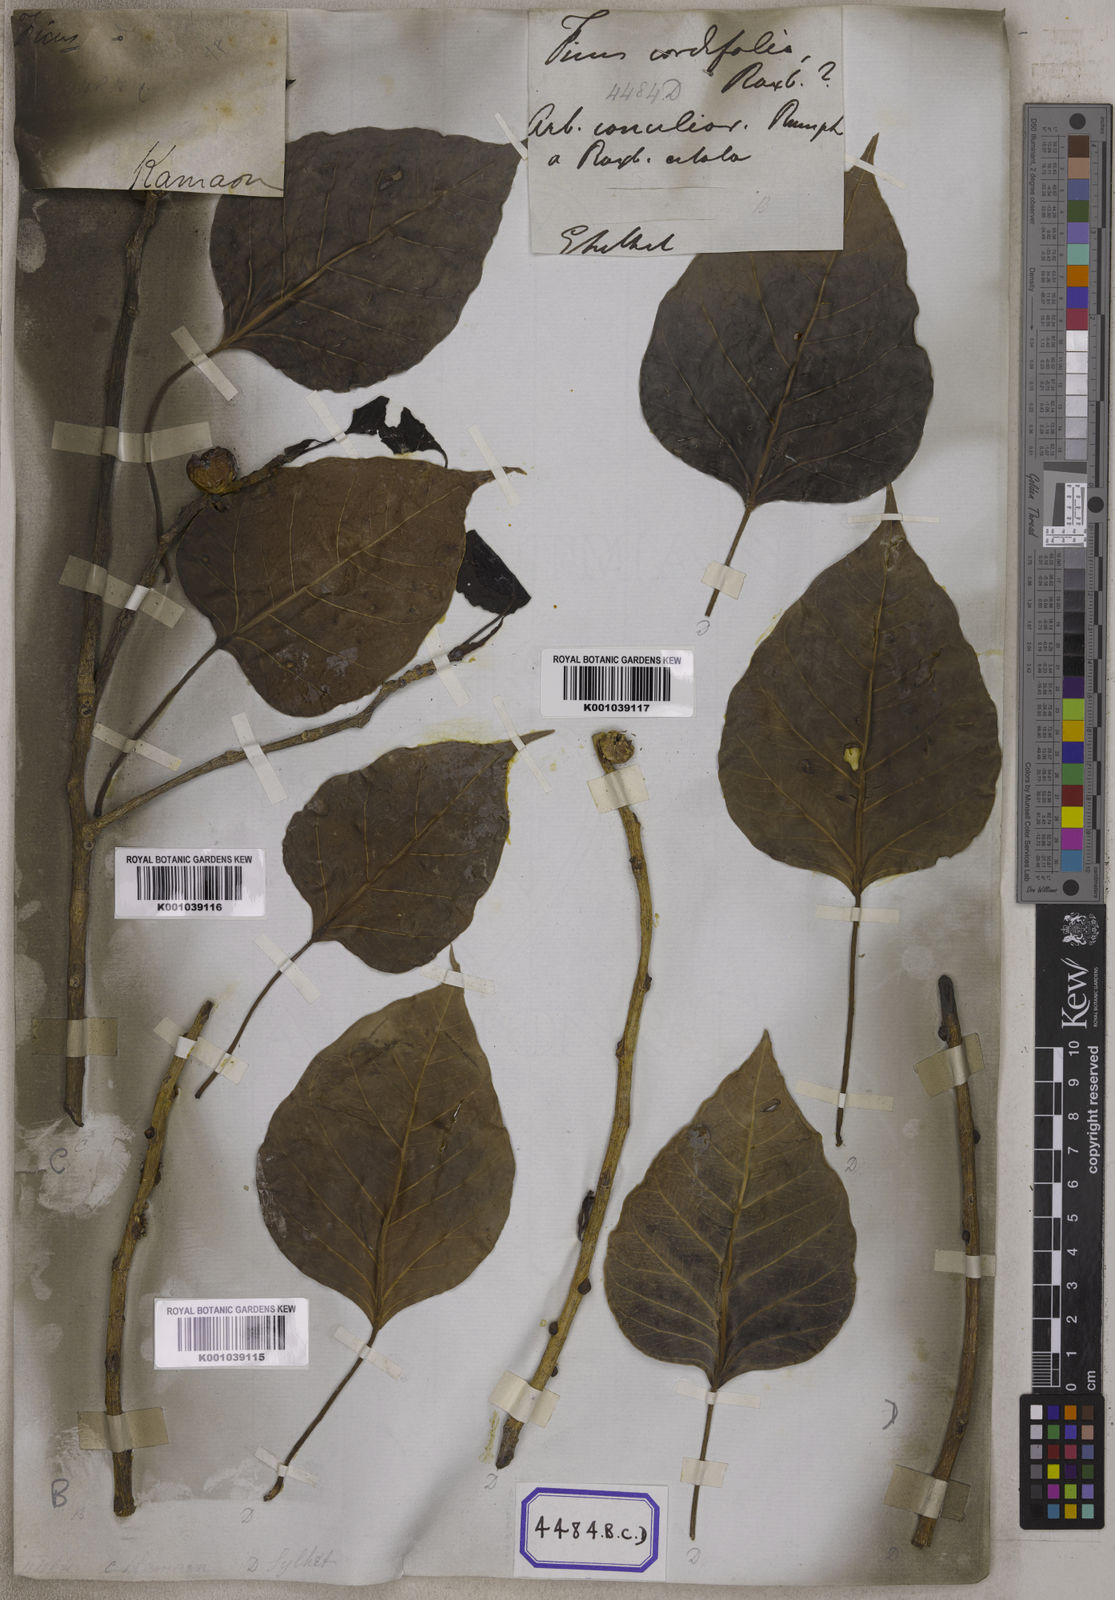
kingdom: Plantae
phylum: Tracheophyta
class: Magnoliopsida
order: Rosales
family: Moraceae
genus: Ficus
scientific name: Ficus rumphii
